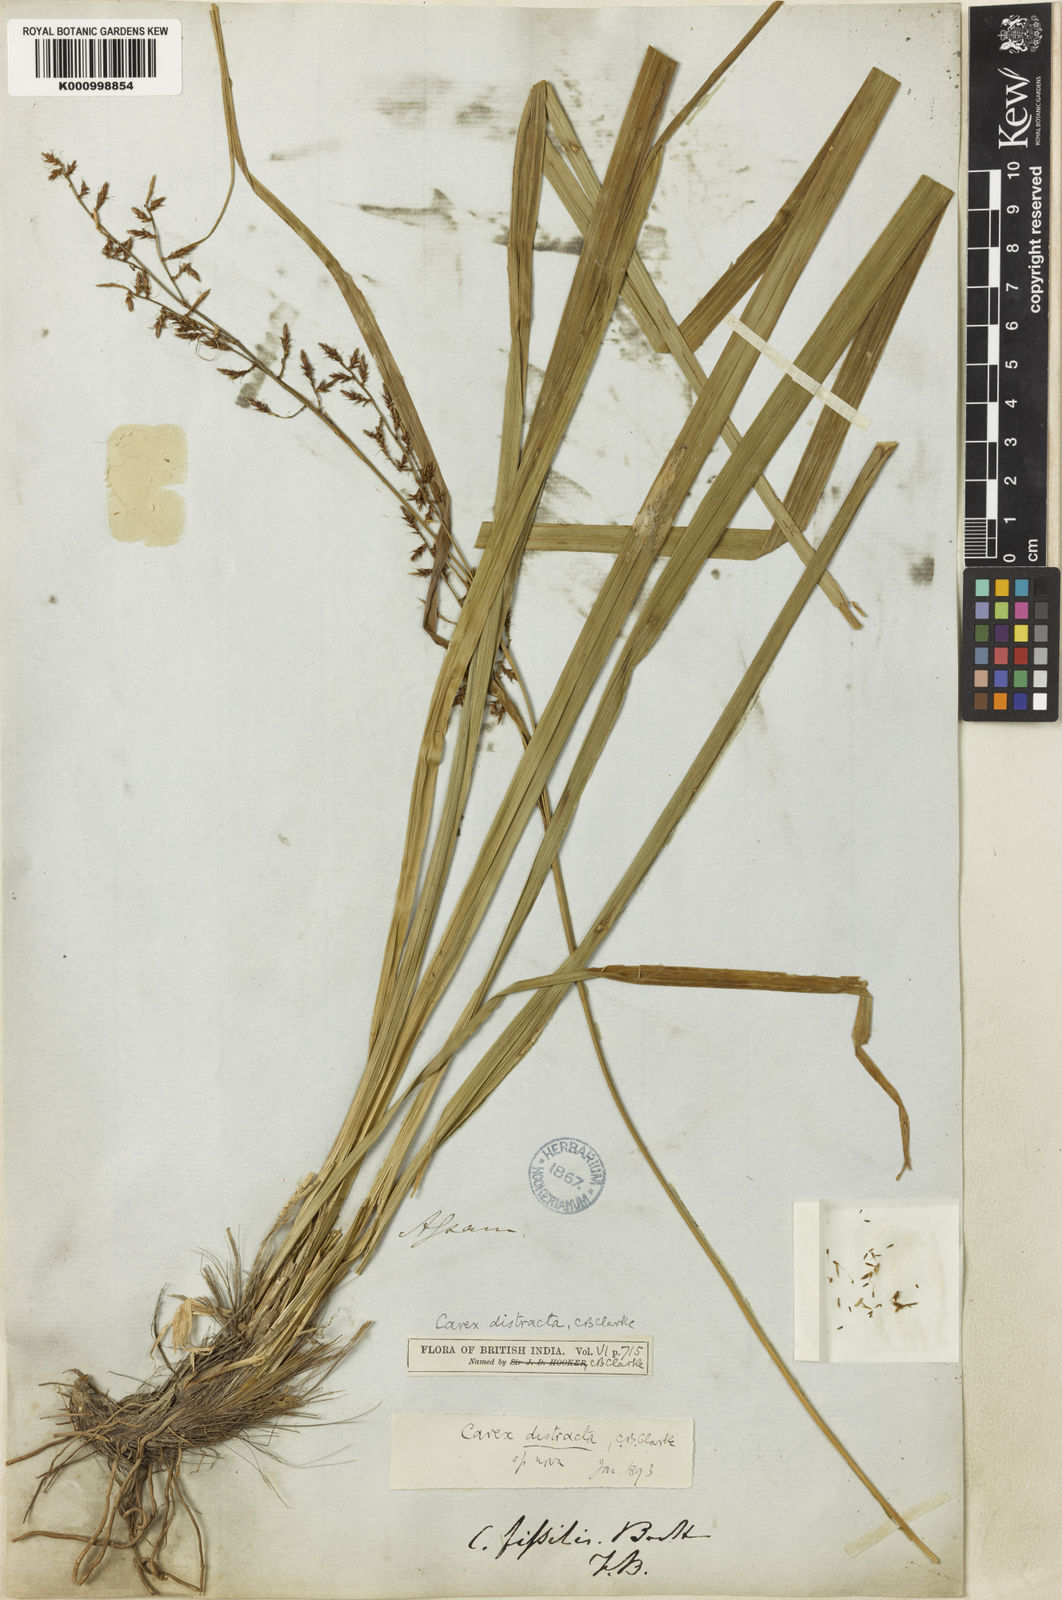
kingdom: Plantae
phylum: Tracheophyta
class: Liliopsida
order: Poales
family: Cyperaceae
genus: Carex
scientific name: Carex distracta
